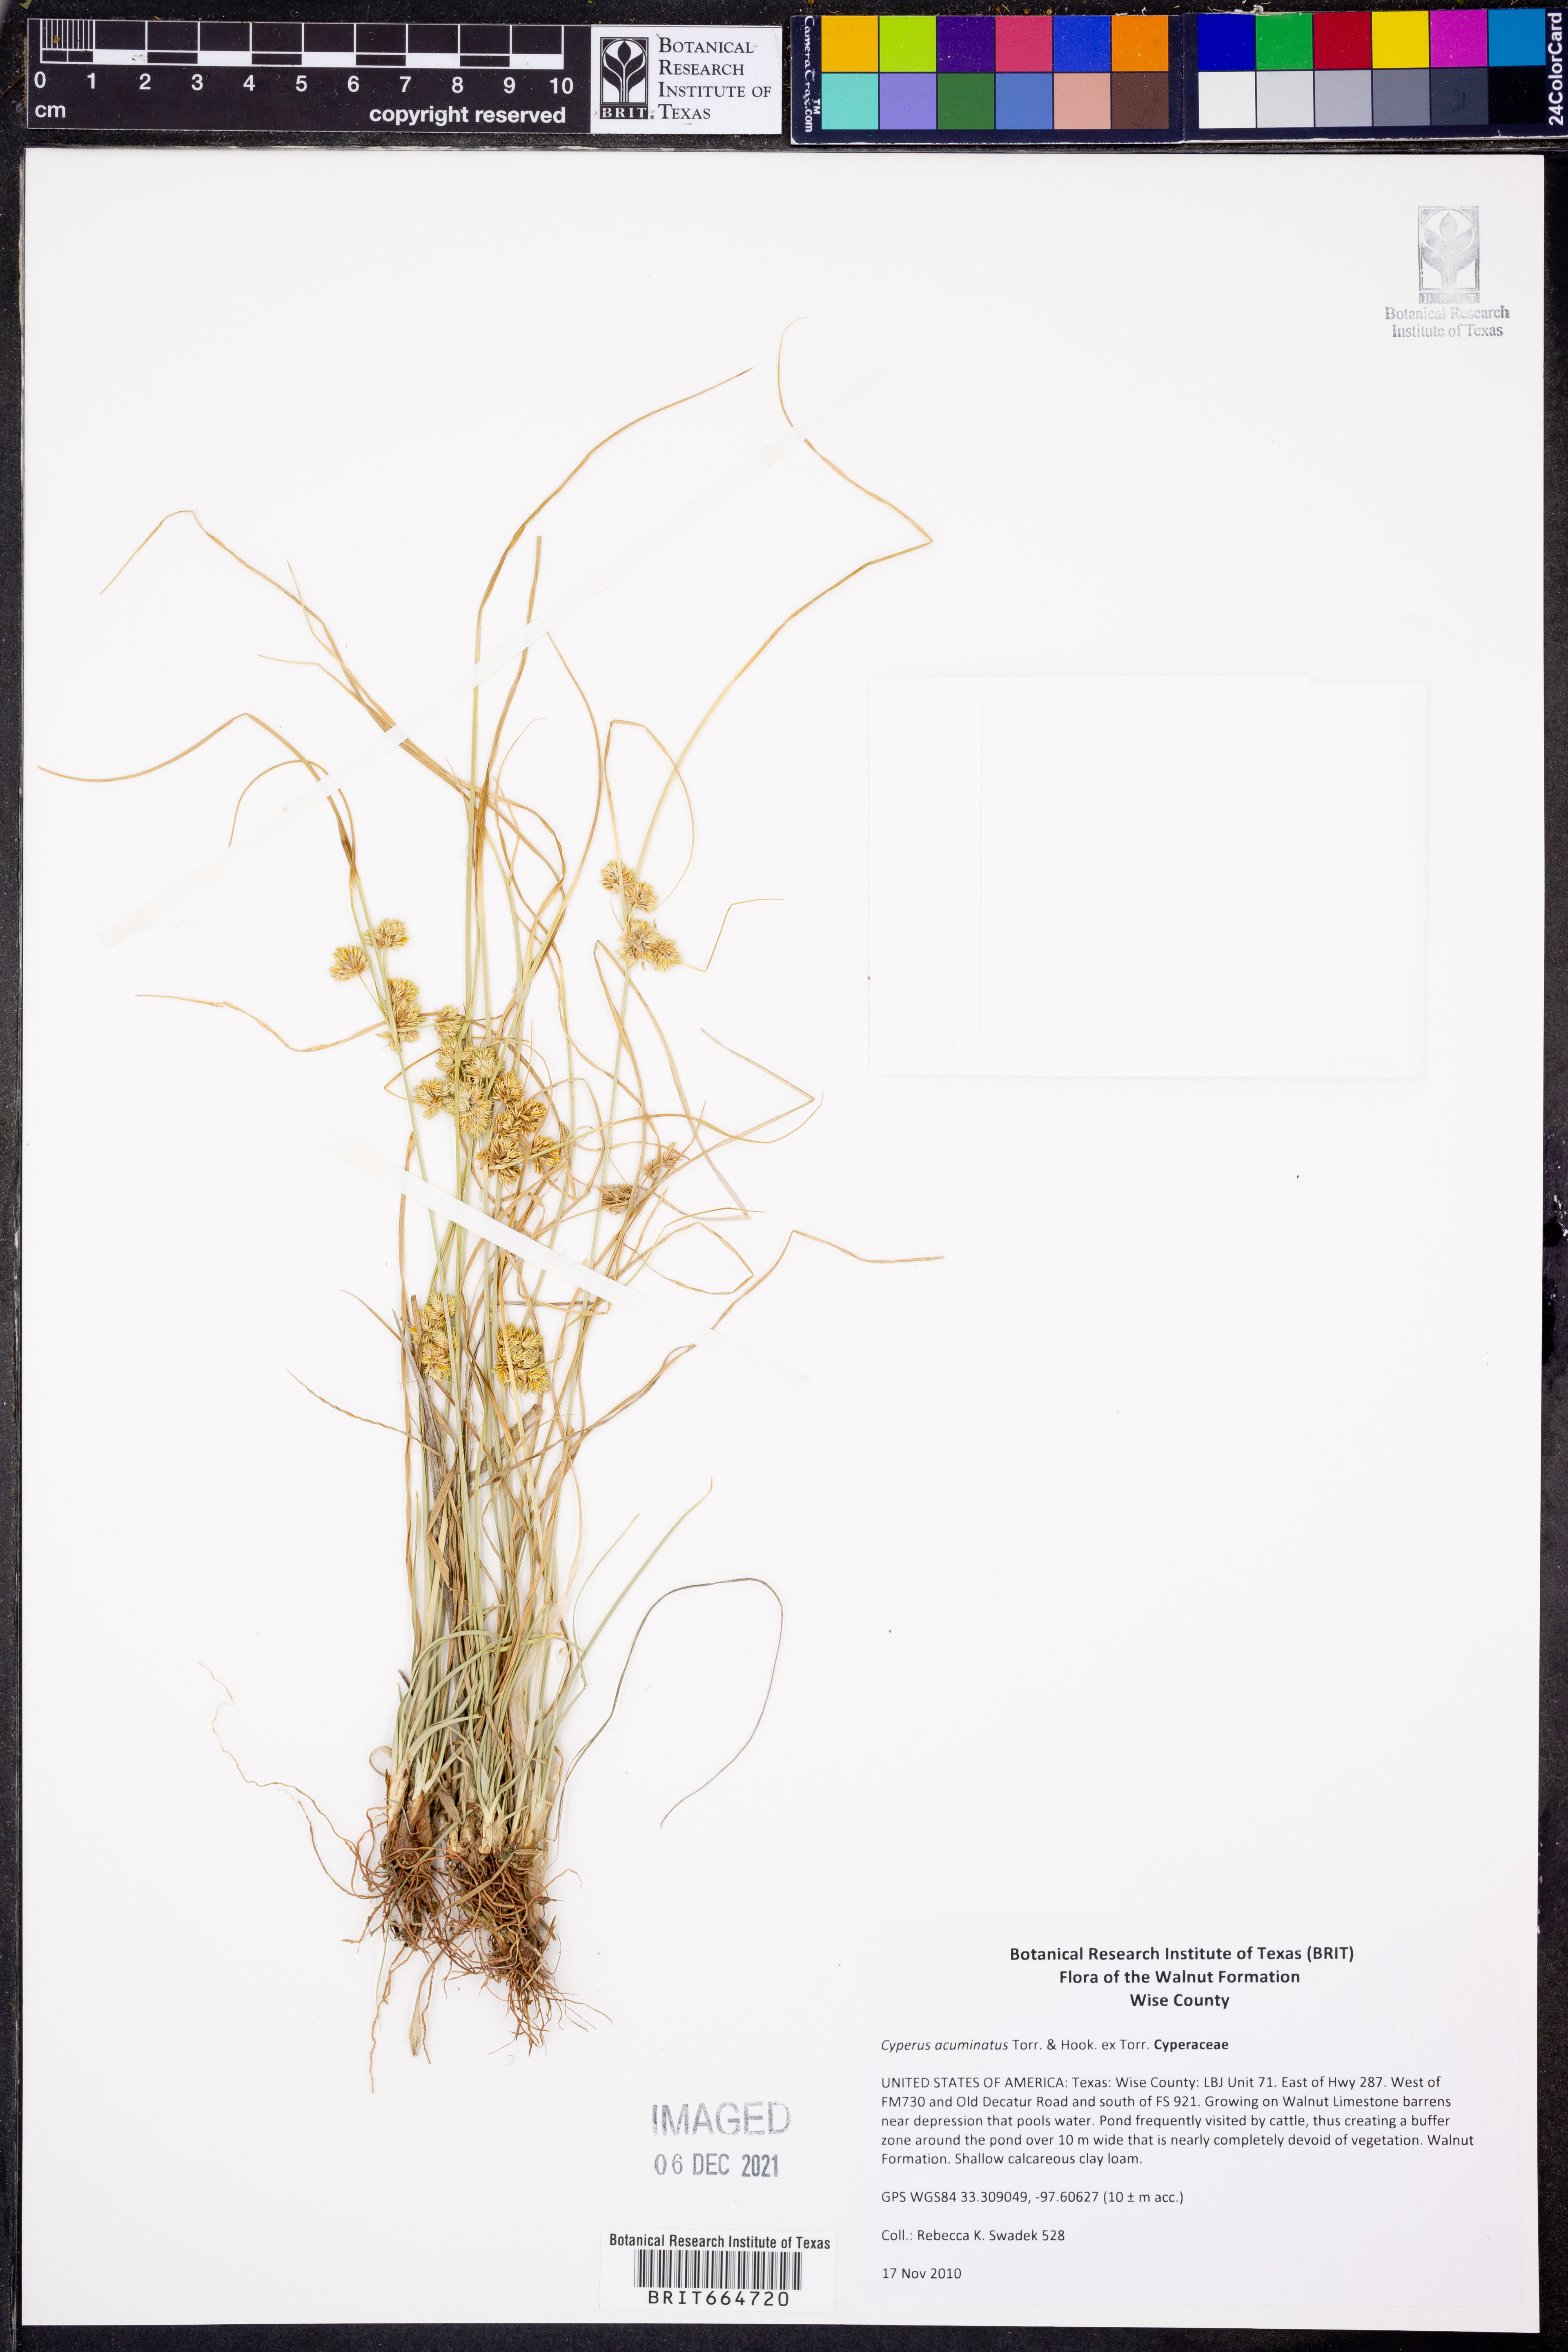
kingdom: Plantae
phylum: Tracheophyta
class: Liliopsida
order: Poales
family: Cyperaceae
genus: Cyperus
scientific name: Cyperus acuminatus
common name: Short-pointed cyperus
